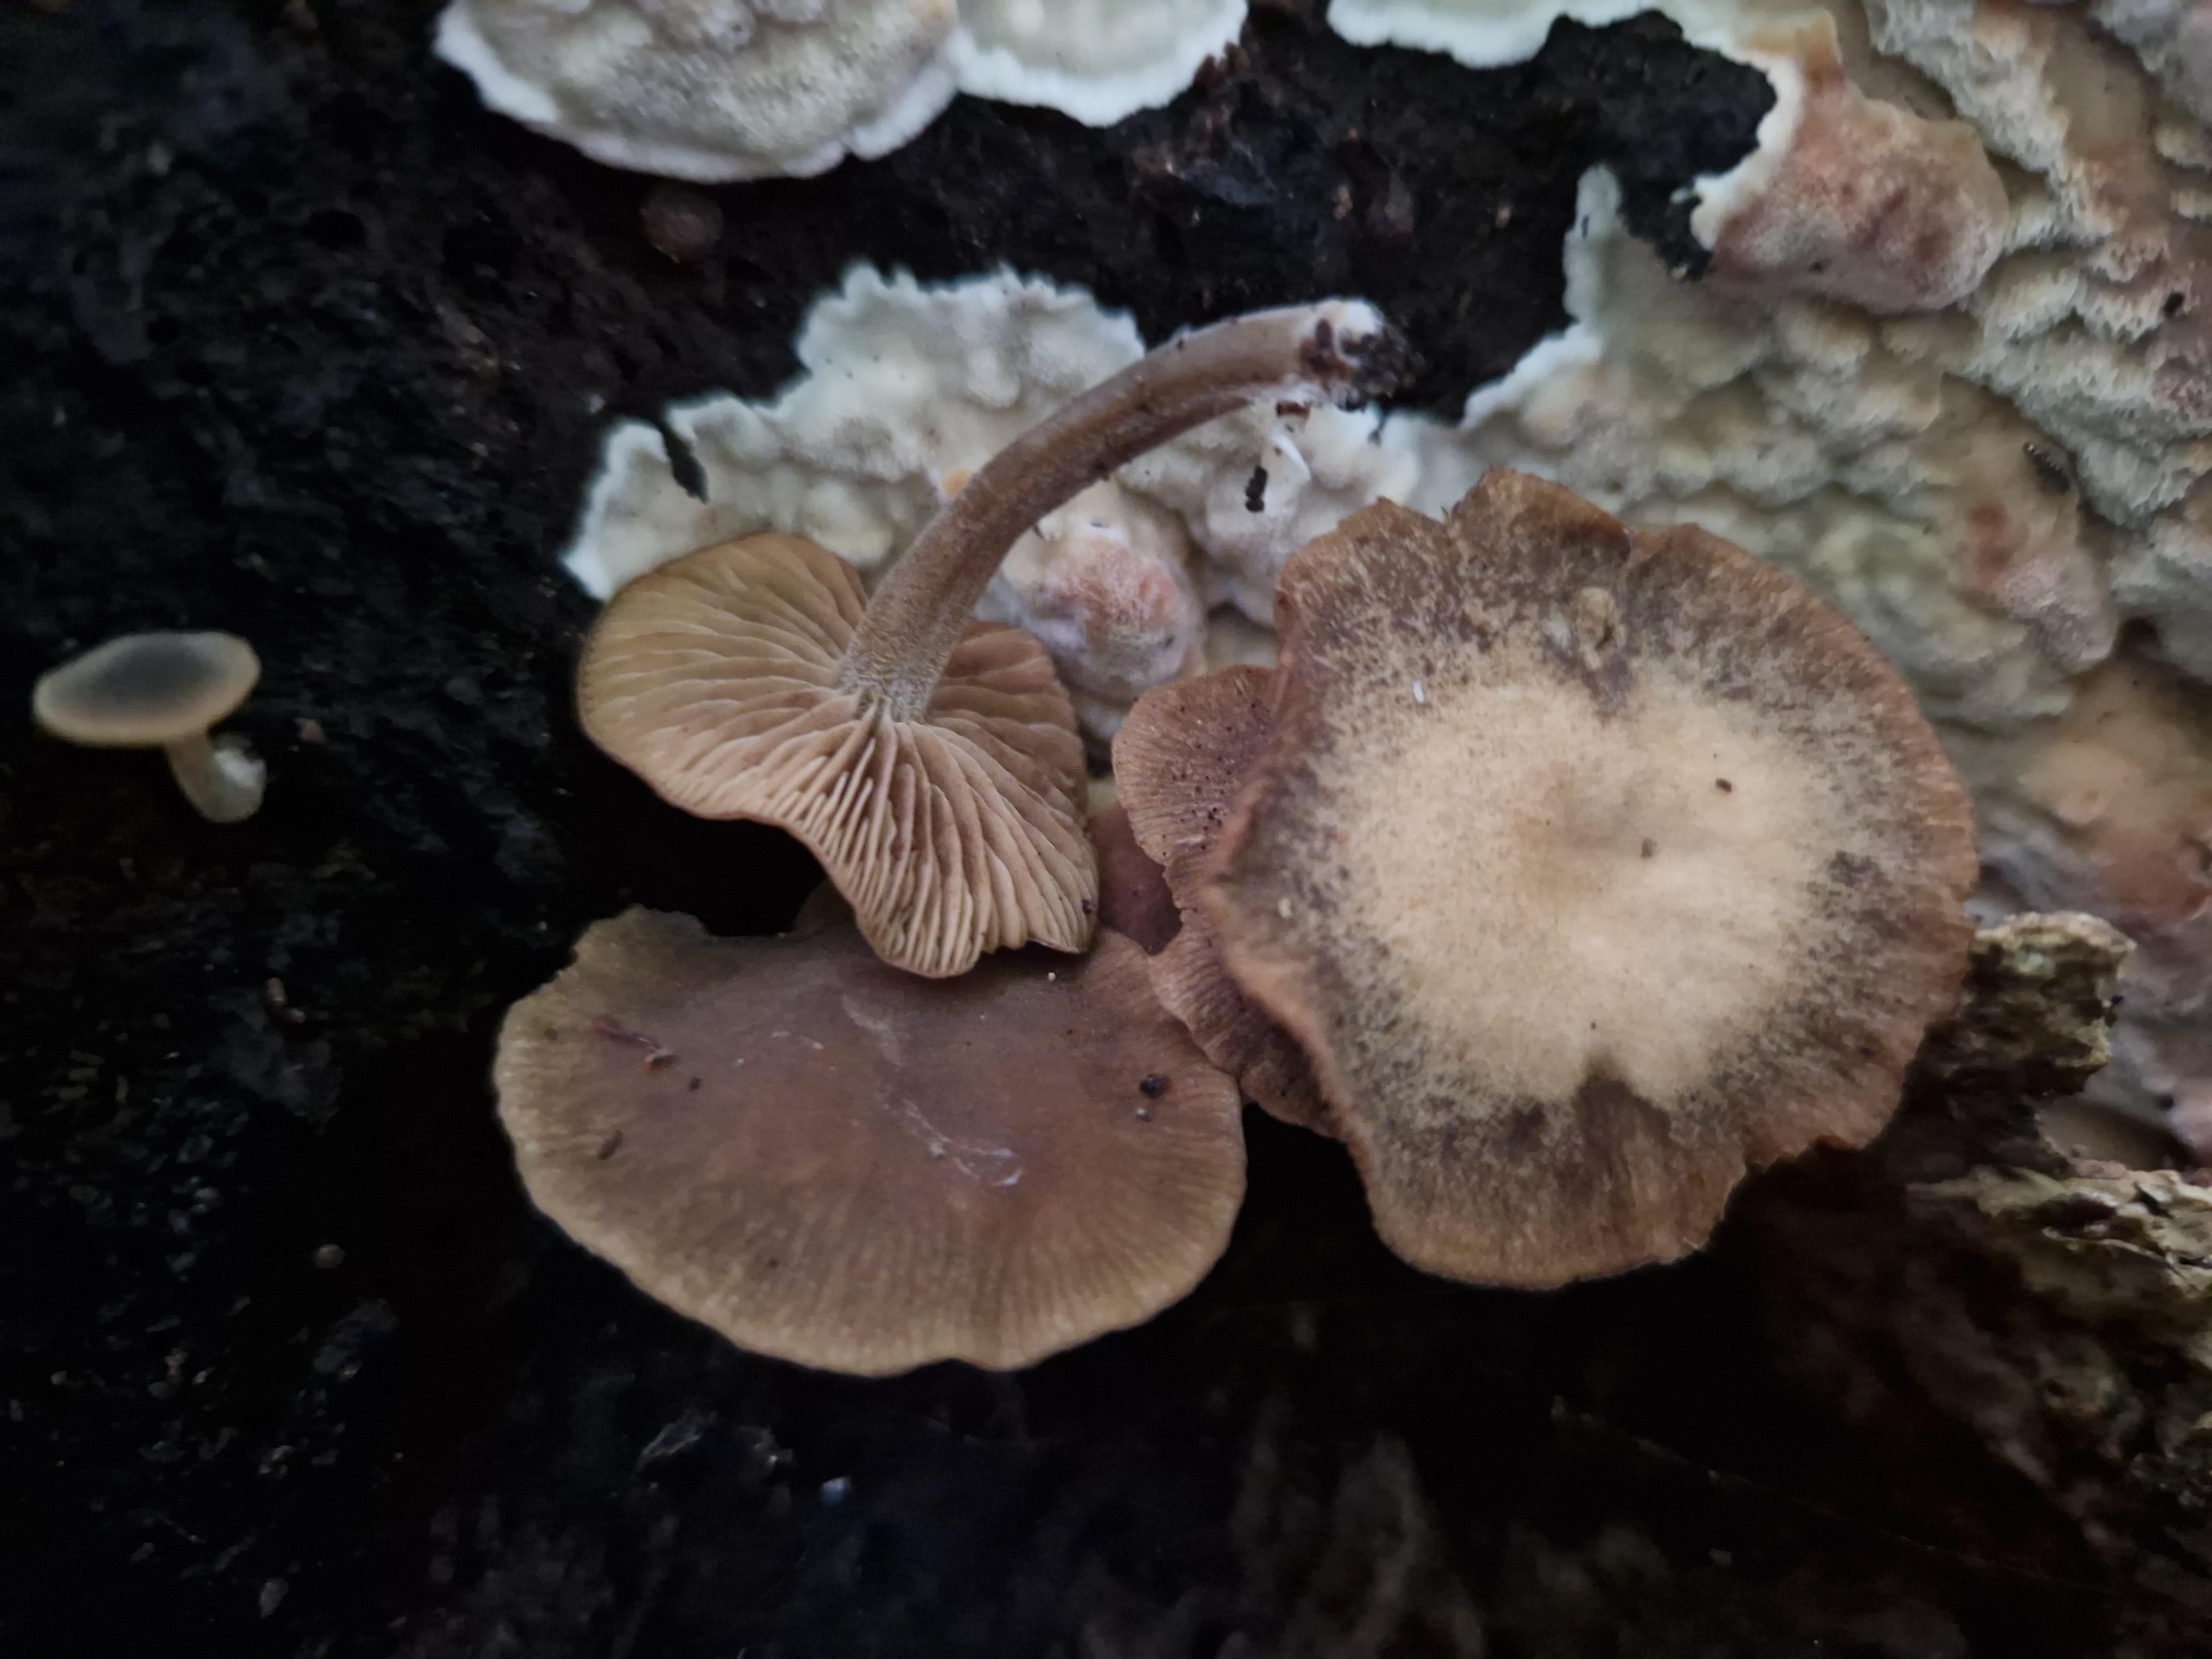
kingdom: Fungi
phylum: Basidiomycota
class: Agaricomycetes
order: Agaricales
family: Crepidotaceae
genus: Simocybe
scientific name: Simocybe centunculus
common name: enlig skyggehat
